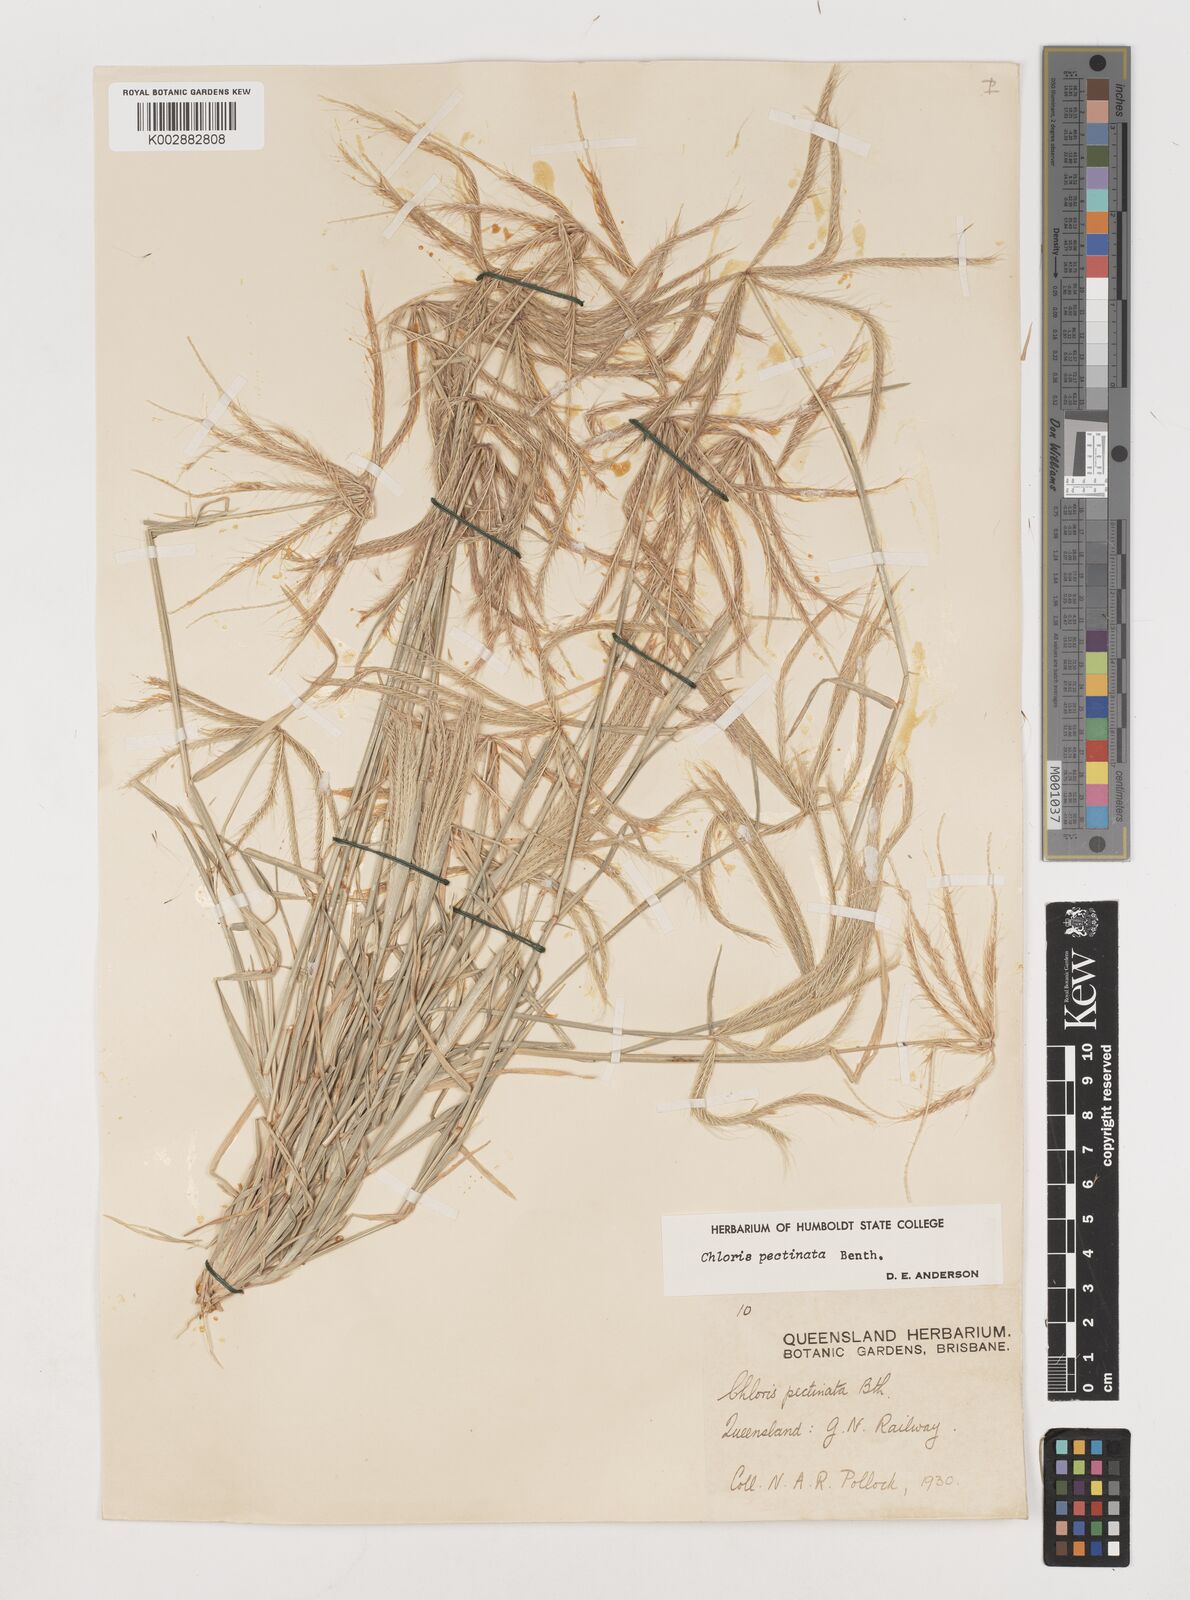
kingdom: Plantae
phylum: Tracheophyta
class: Liliopsida
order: Poales
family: Poaceae
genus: Chloris
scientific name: Chloris pectinata
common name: Comb windmill grass
